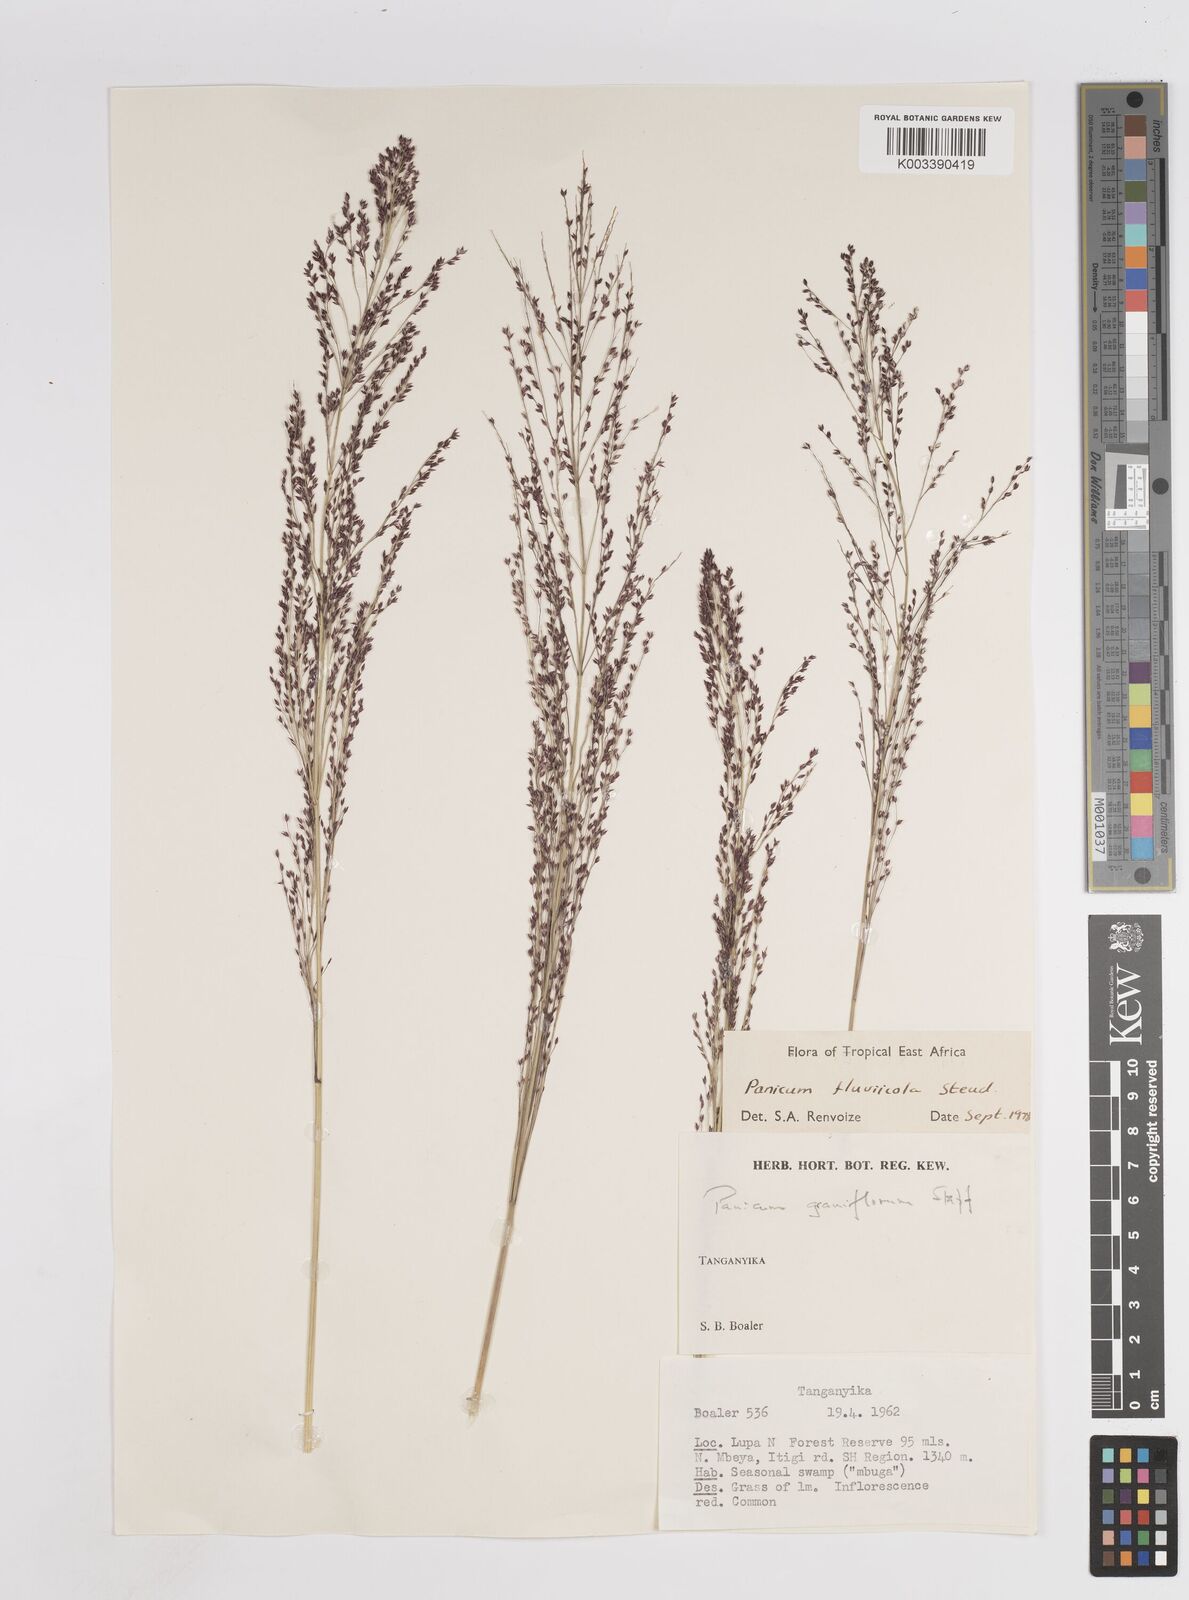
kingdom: Plantae
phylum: Tracheophyta
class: Liliopsida
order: Poales
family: Poaceae
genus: Panicum
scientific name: Panicum fluviicola
